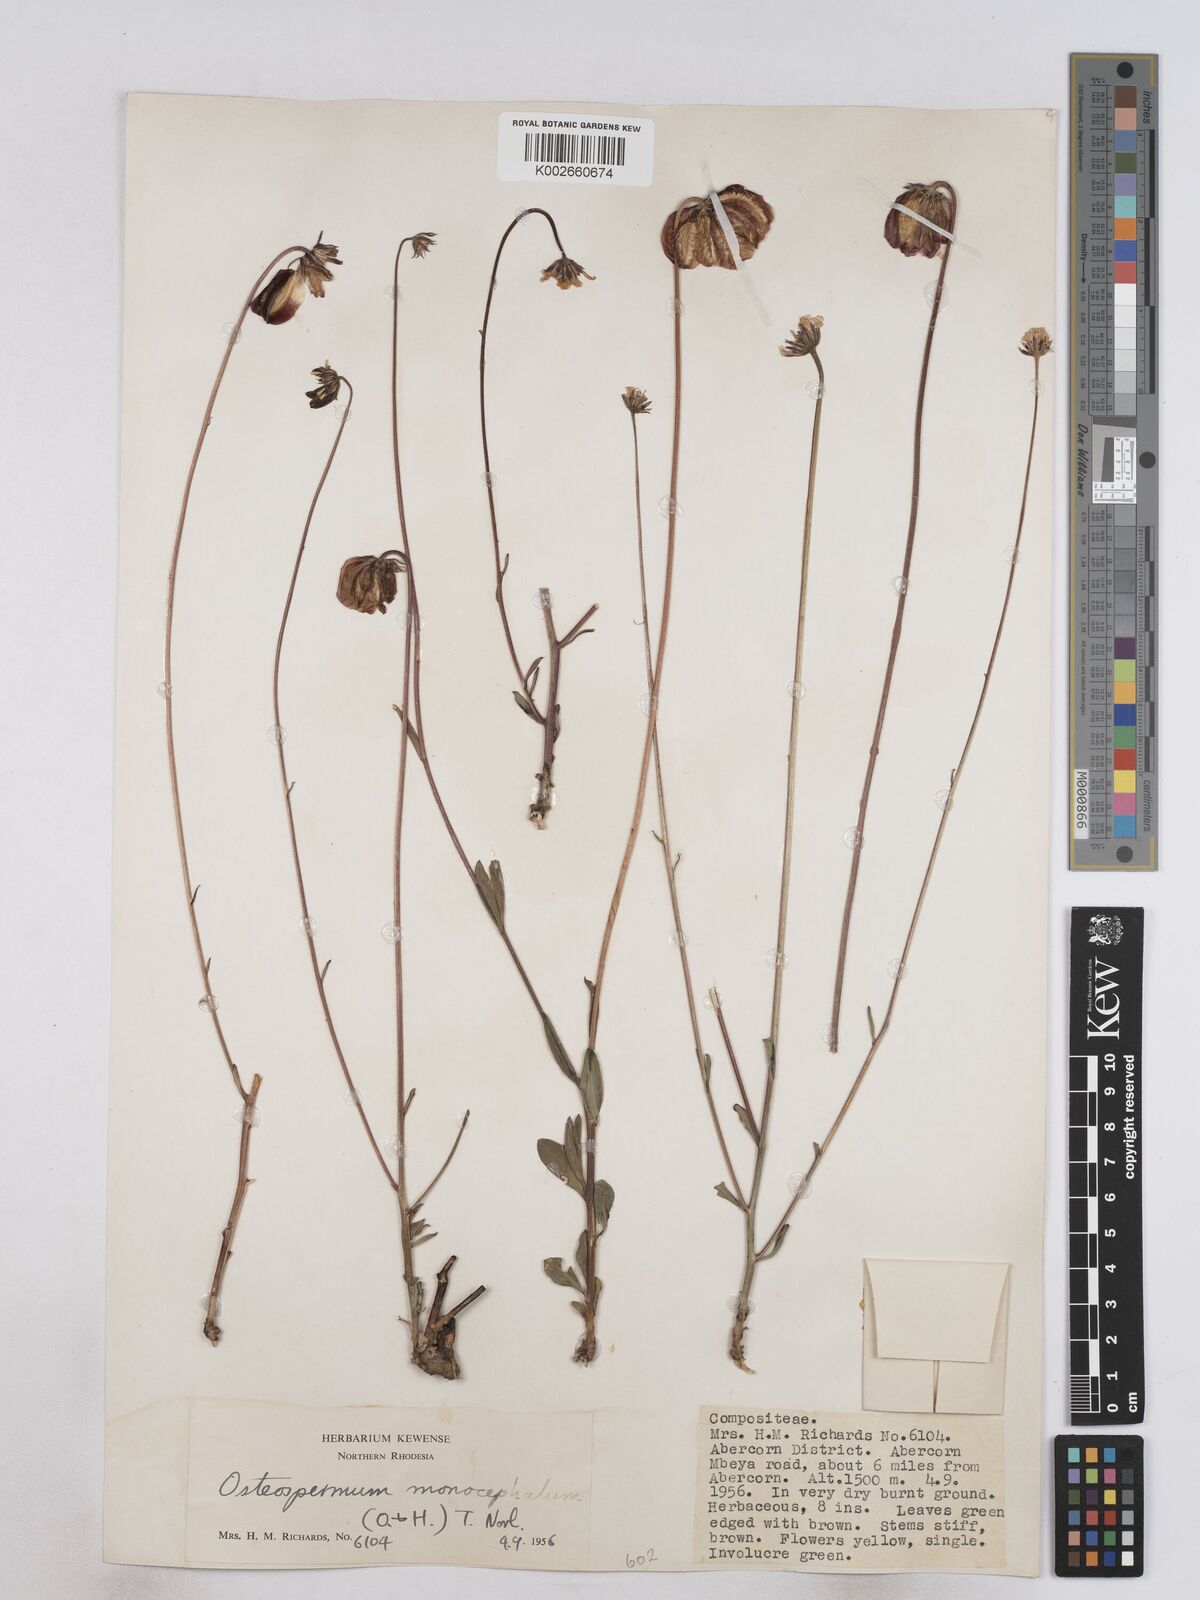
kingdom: Plantae
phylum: Tracheophyta
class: Magnoliopsida
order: Asterales
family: Asteraceae
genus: Osteospermum
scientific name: Osteospermum monocephalum
